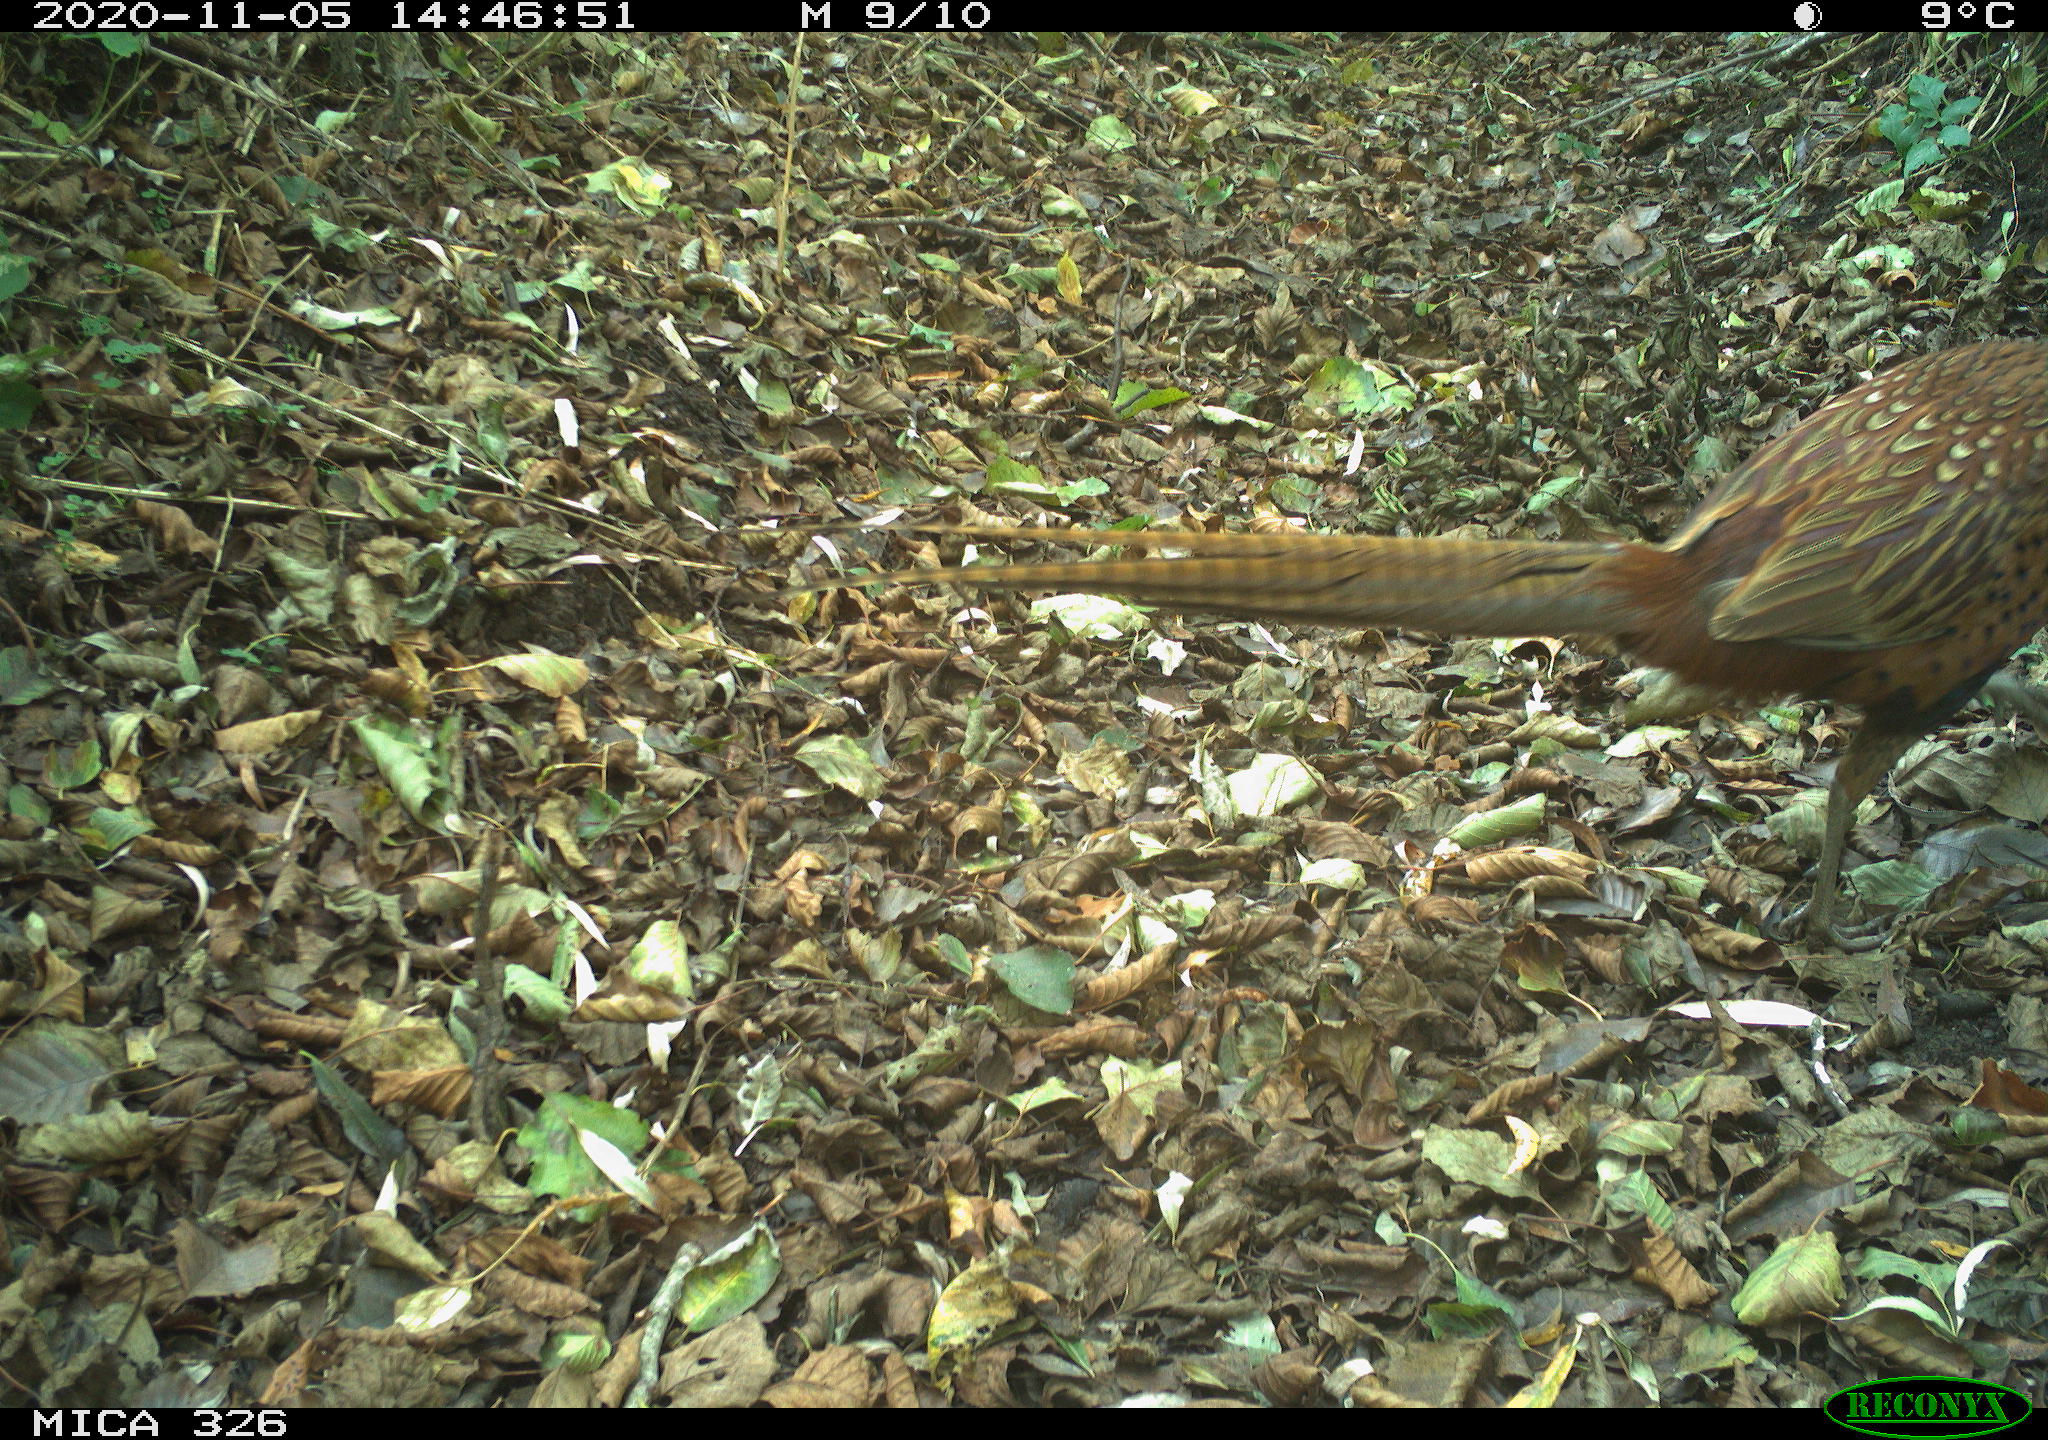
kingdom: Animalia
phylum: Chordata
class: Aves
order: Galliformes
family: Phasianidae
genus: Phasianus
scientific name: Phasianus colchicus
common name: Common pheasant
